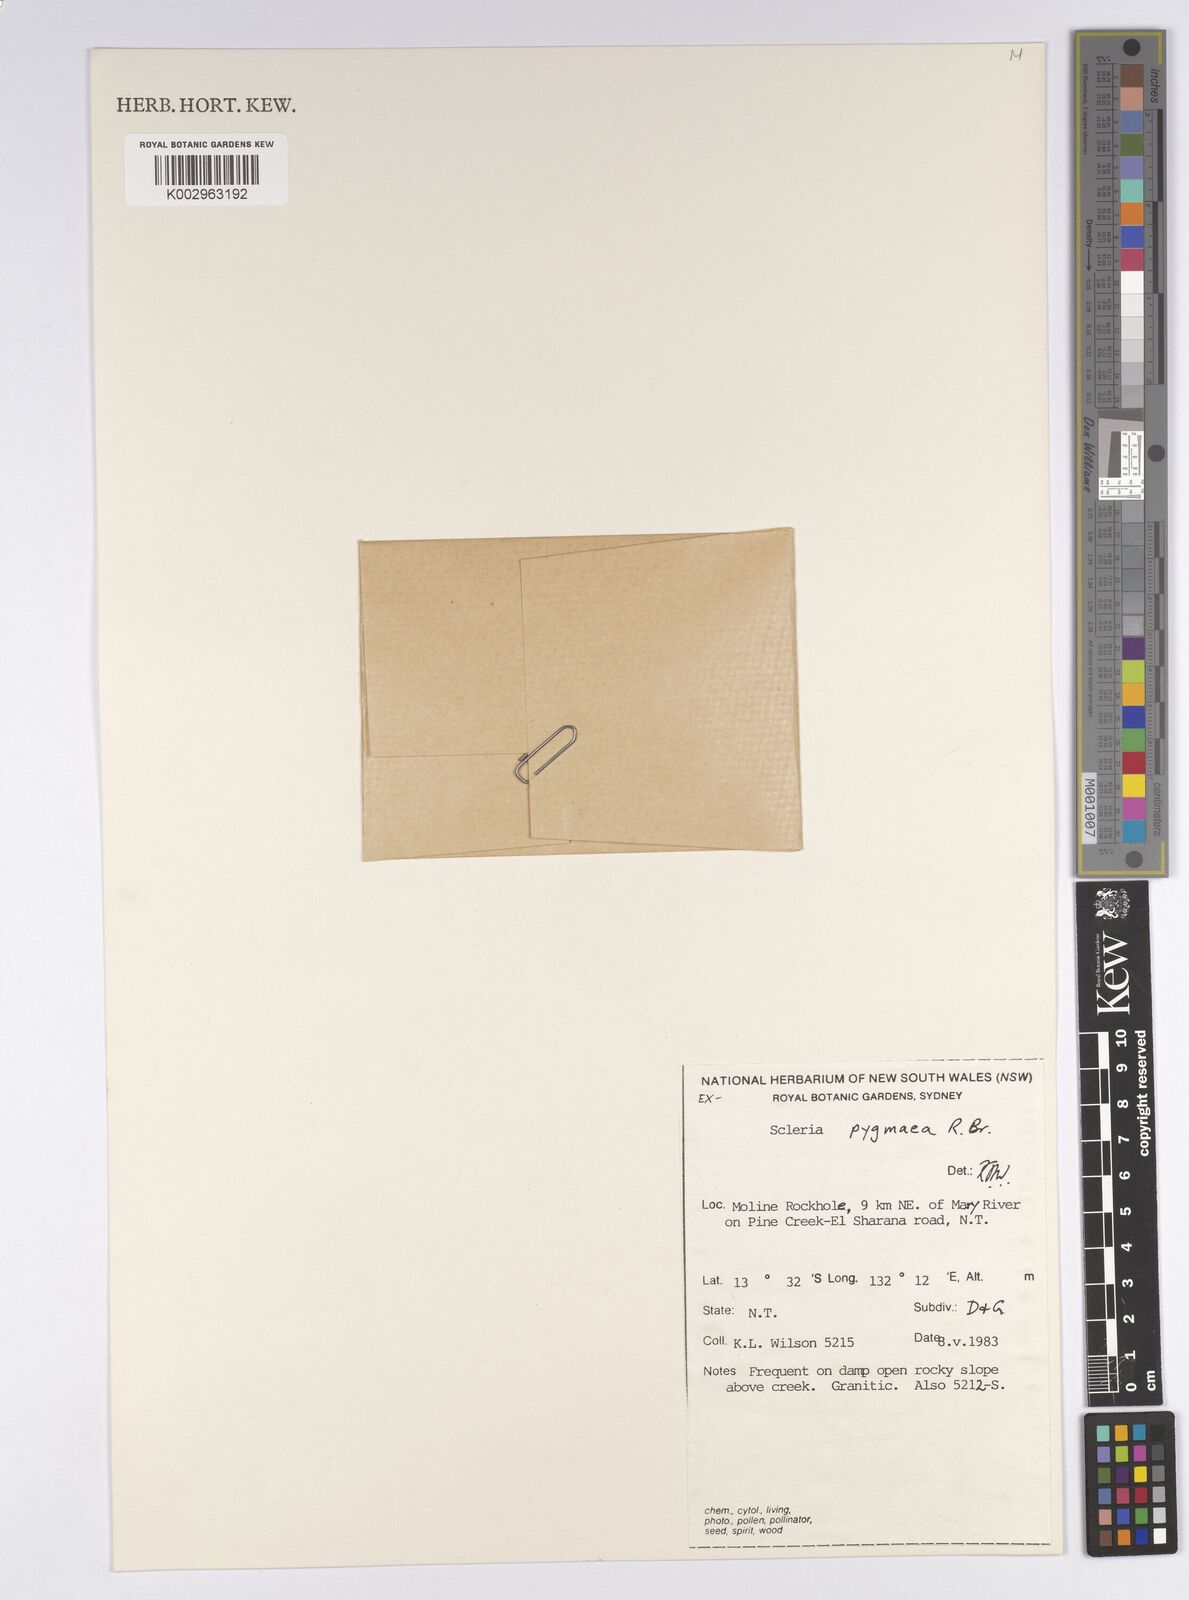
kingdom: Plantae
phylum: Tracheophyta
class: Liliopsida
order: Poales
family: Cyperaceae
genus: Diplacrum
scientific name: Diplacrum pygmaeum
